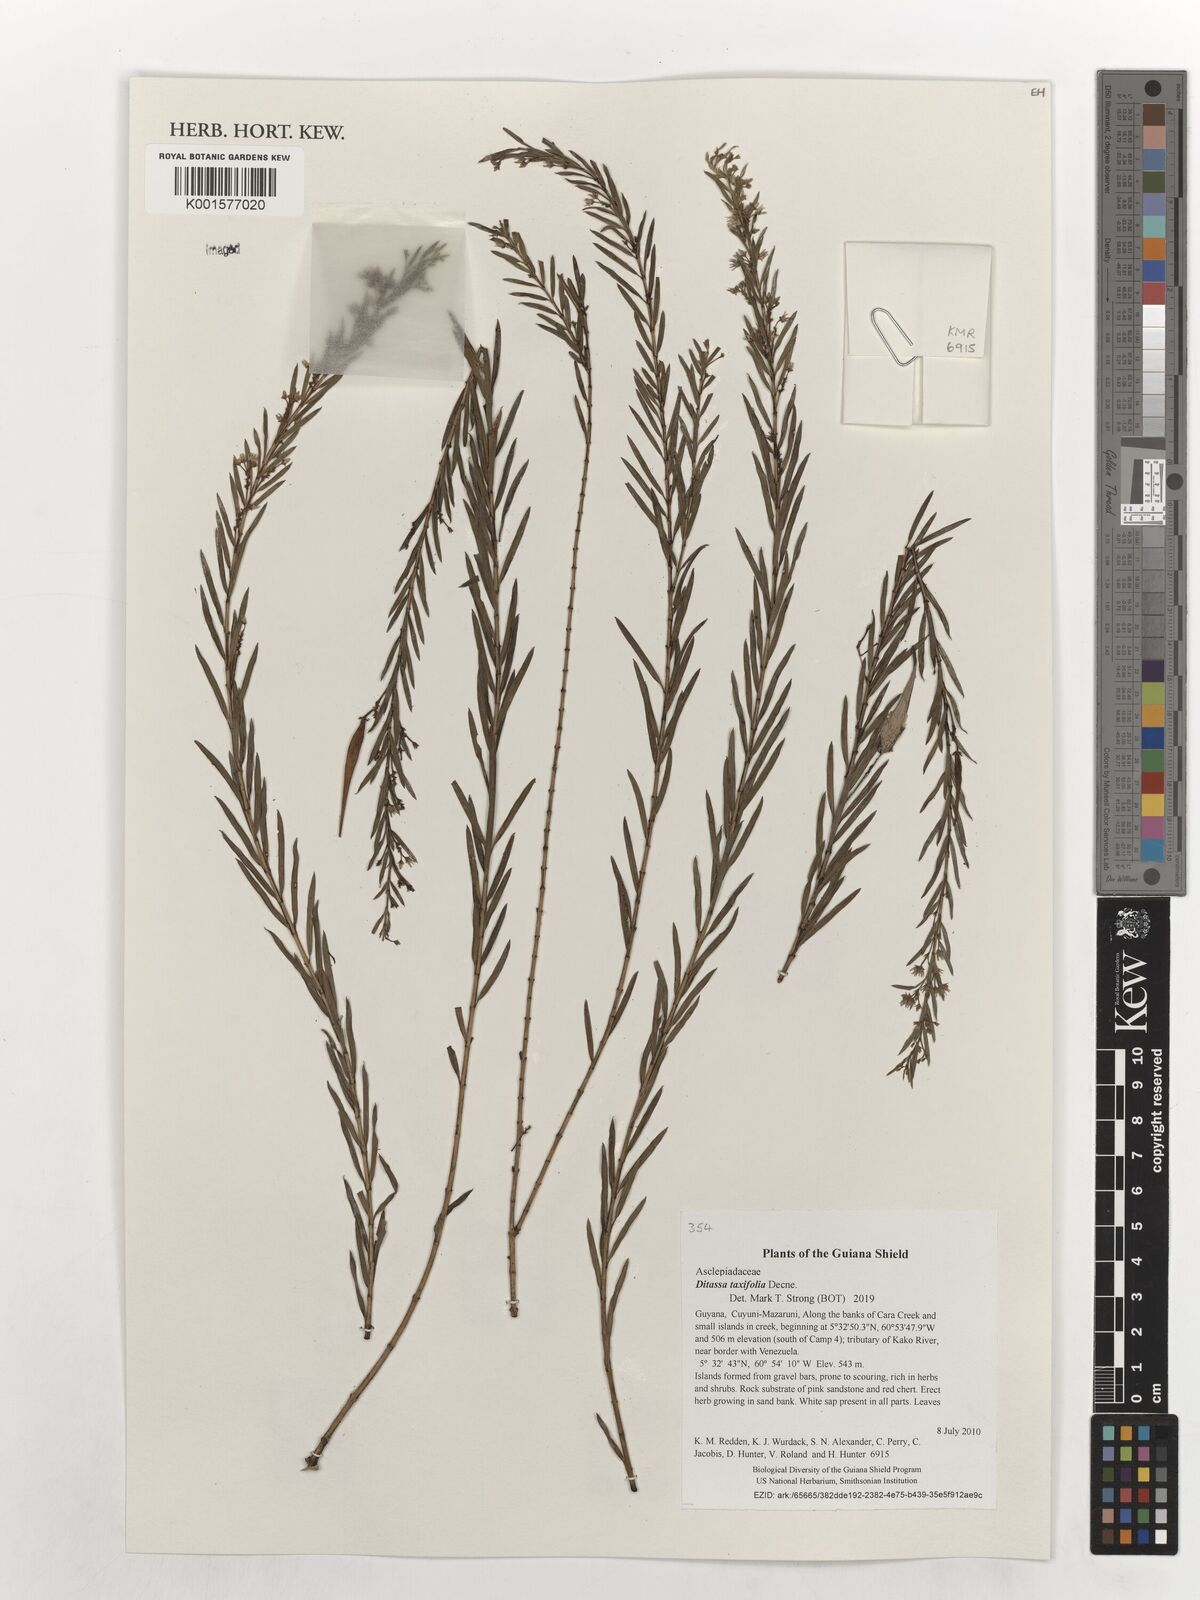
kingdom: Plantae
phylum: Tracheophyta
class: Magnoliopsida
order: Gentianales
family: Apocynaceae
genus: Ditassa
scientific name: Ditassa taxifolia
